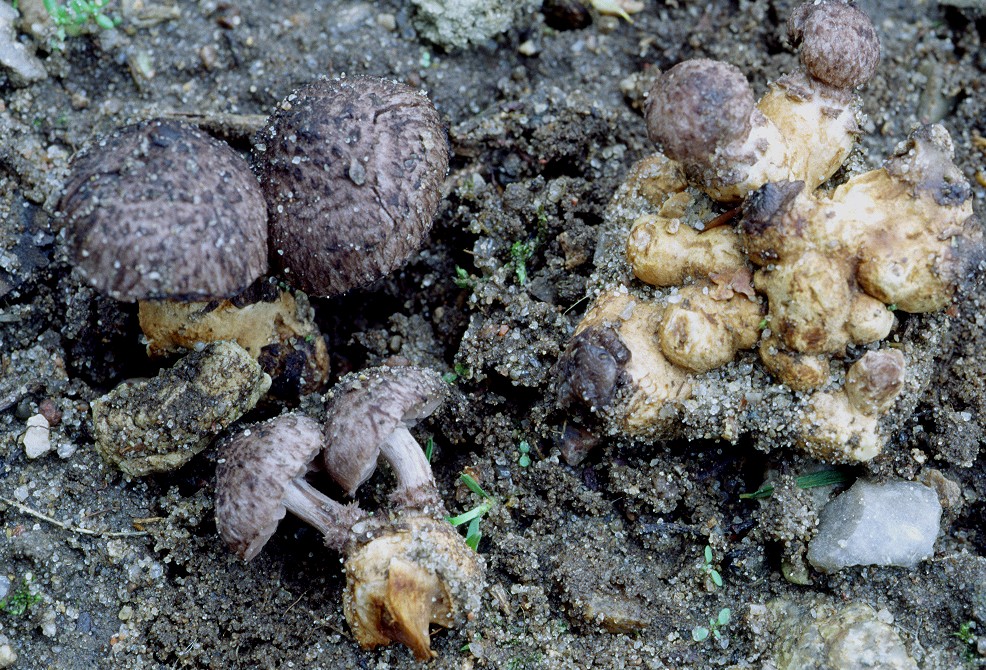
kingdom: Fungi
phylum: Basidiomycota
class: Agaricomycetes
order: Agaricales
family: Squamanitaceae
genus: Dissoderma
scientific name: Dissoderma odoratum
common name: vellugtende knoldfod
